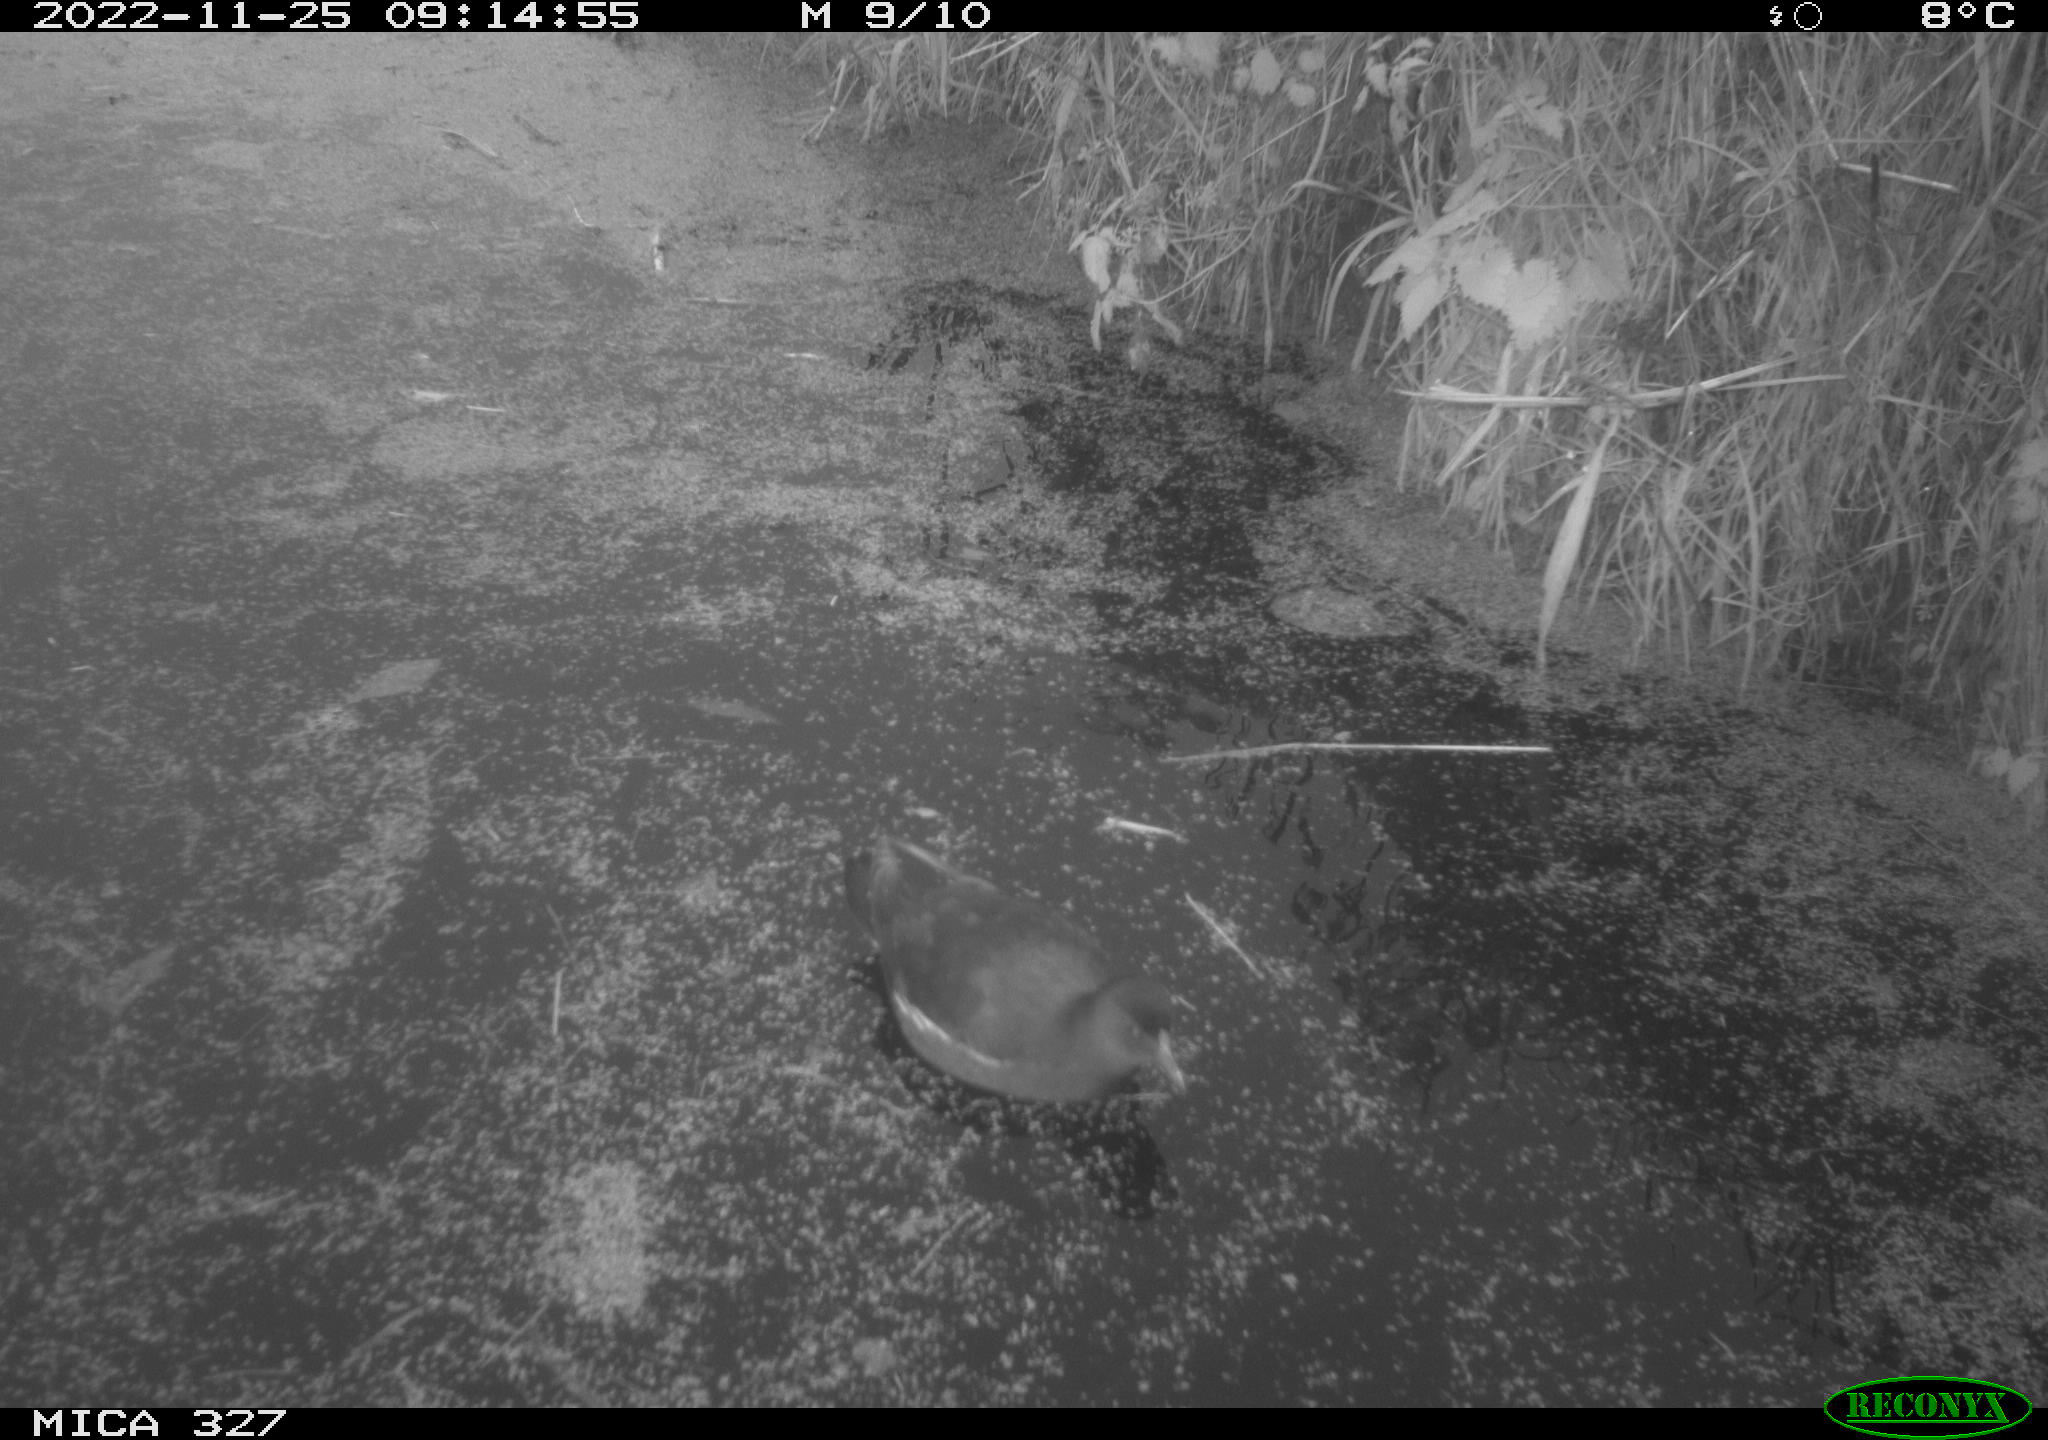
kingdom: Animalia
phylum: Chordata
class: Aves
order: Gruiformes
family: Rallidae
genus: Gallinula
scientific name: Gallinula chloropus
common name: Common moorhen
